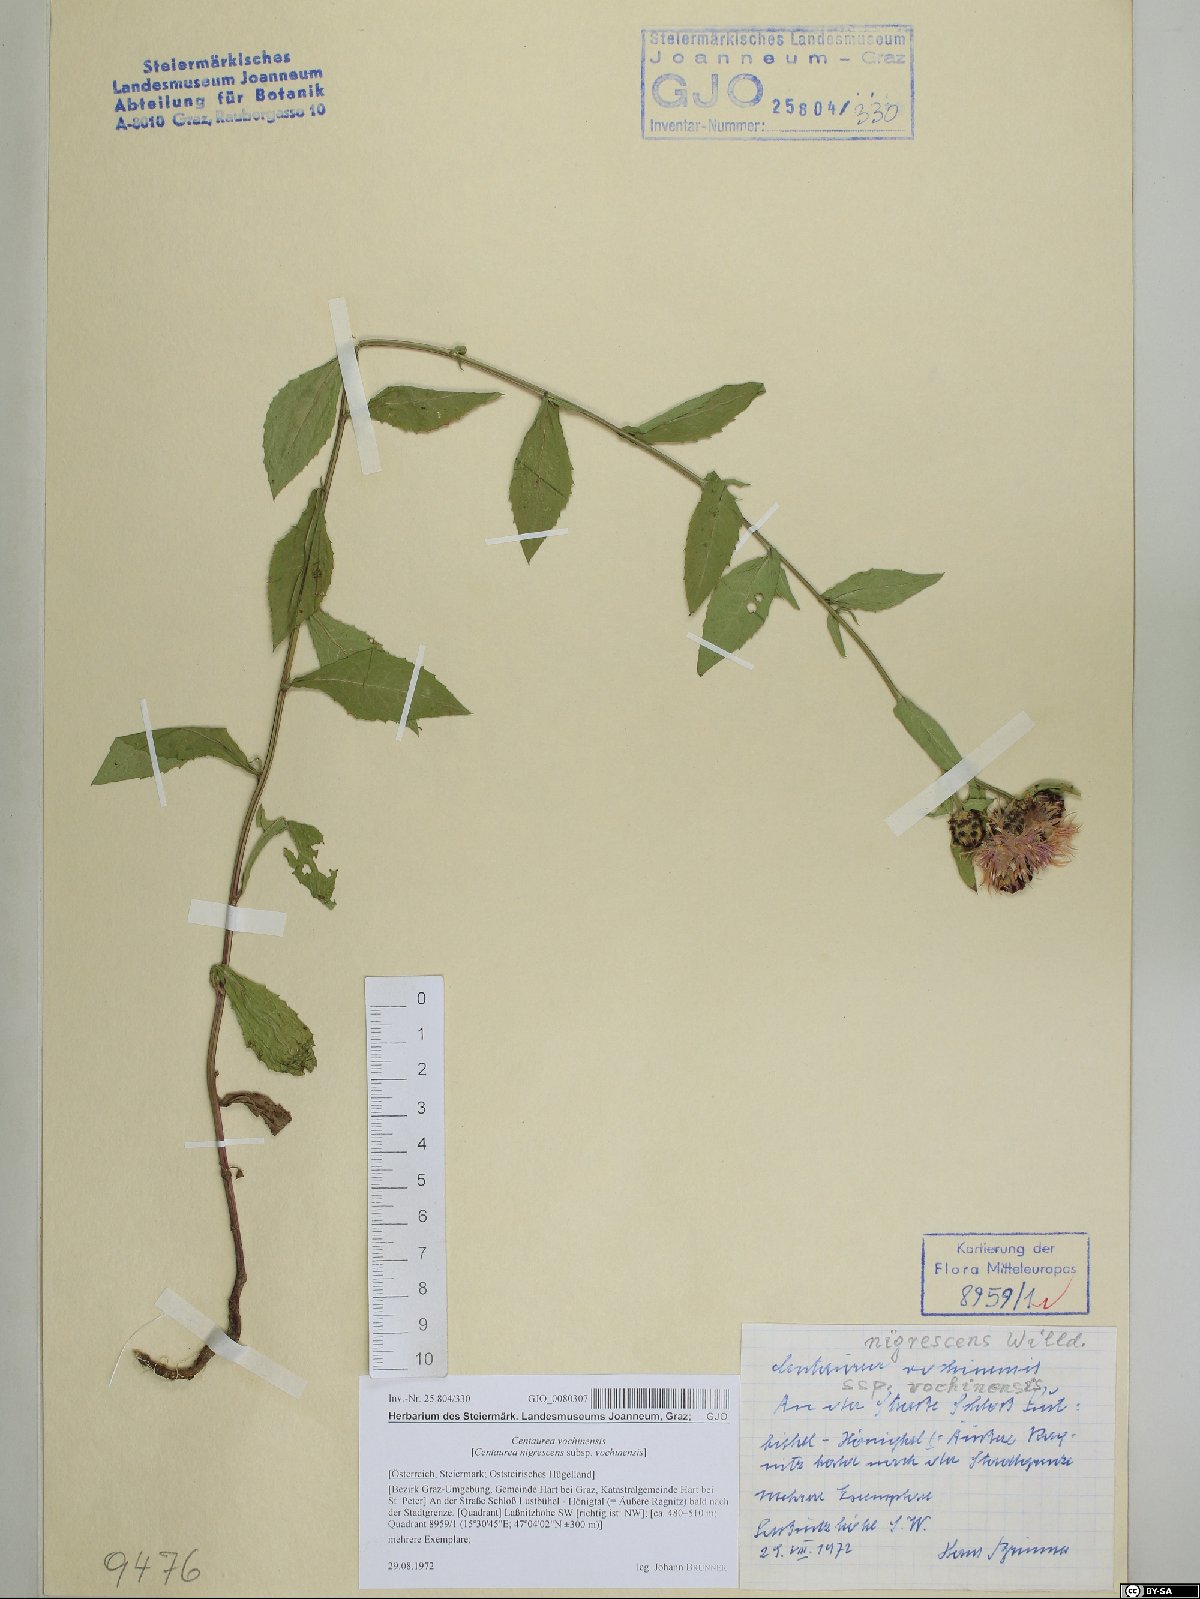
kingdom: Plantae
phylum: Tracheophyta
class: Magnoliopsida
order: Asterales
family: Asteraceae
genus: Centaurea
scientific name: Centaurea carniolica
